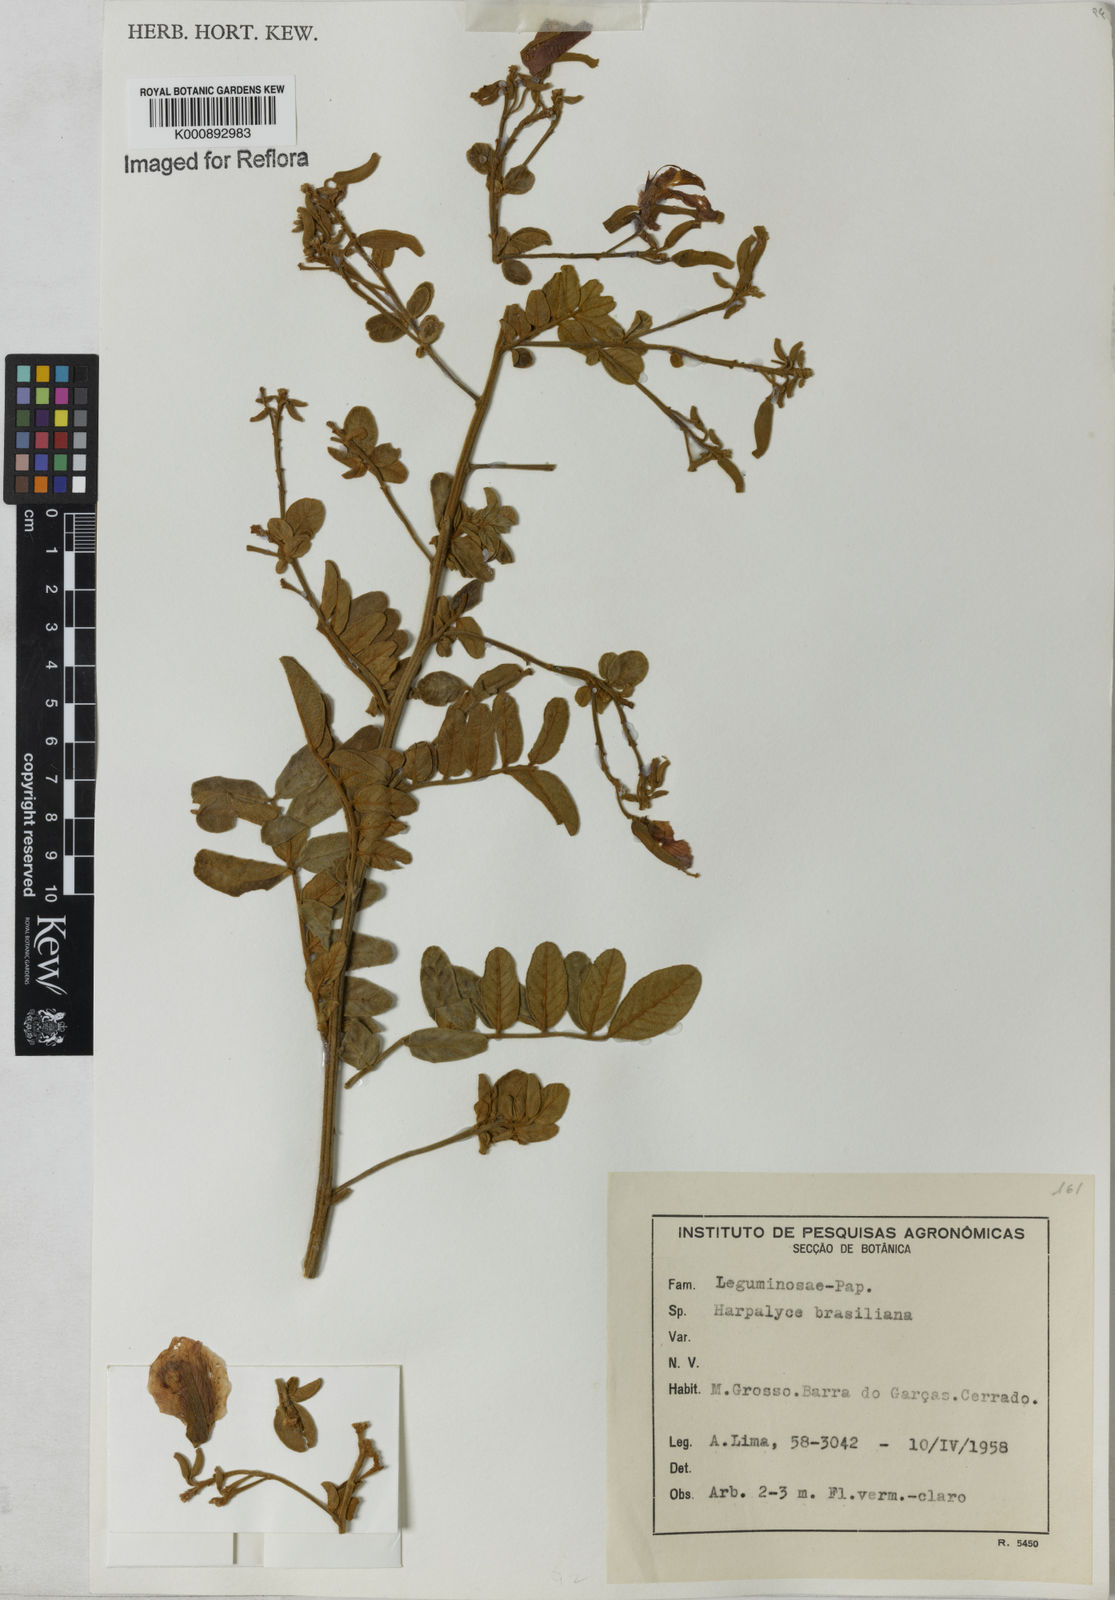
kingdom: Plantae
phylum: Tracheophyta
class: Magnoliopsida
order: Fabales
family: Fabaceae
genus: Harpalyce
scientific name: Harpalyce brasiliana
